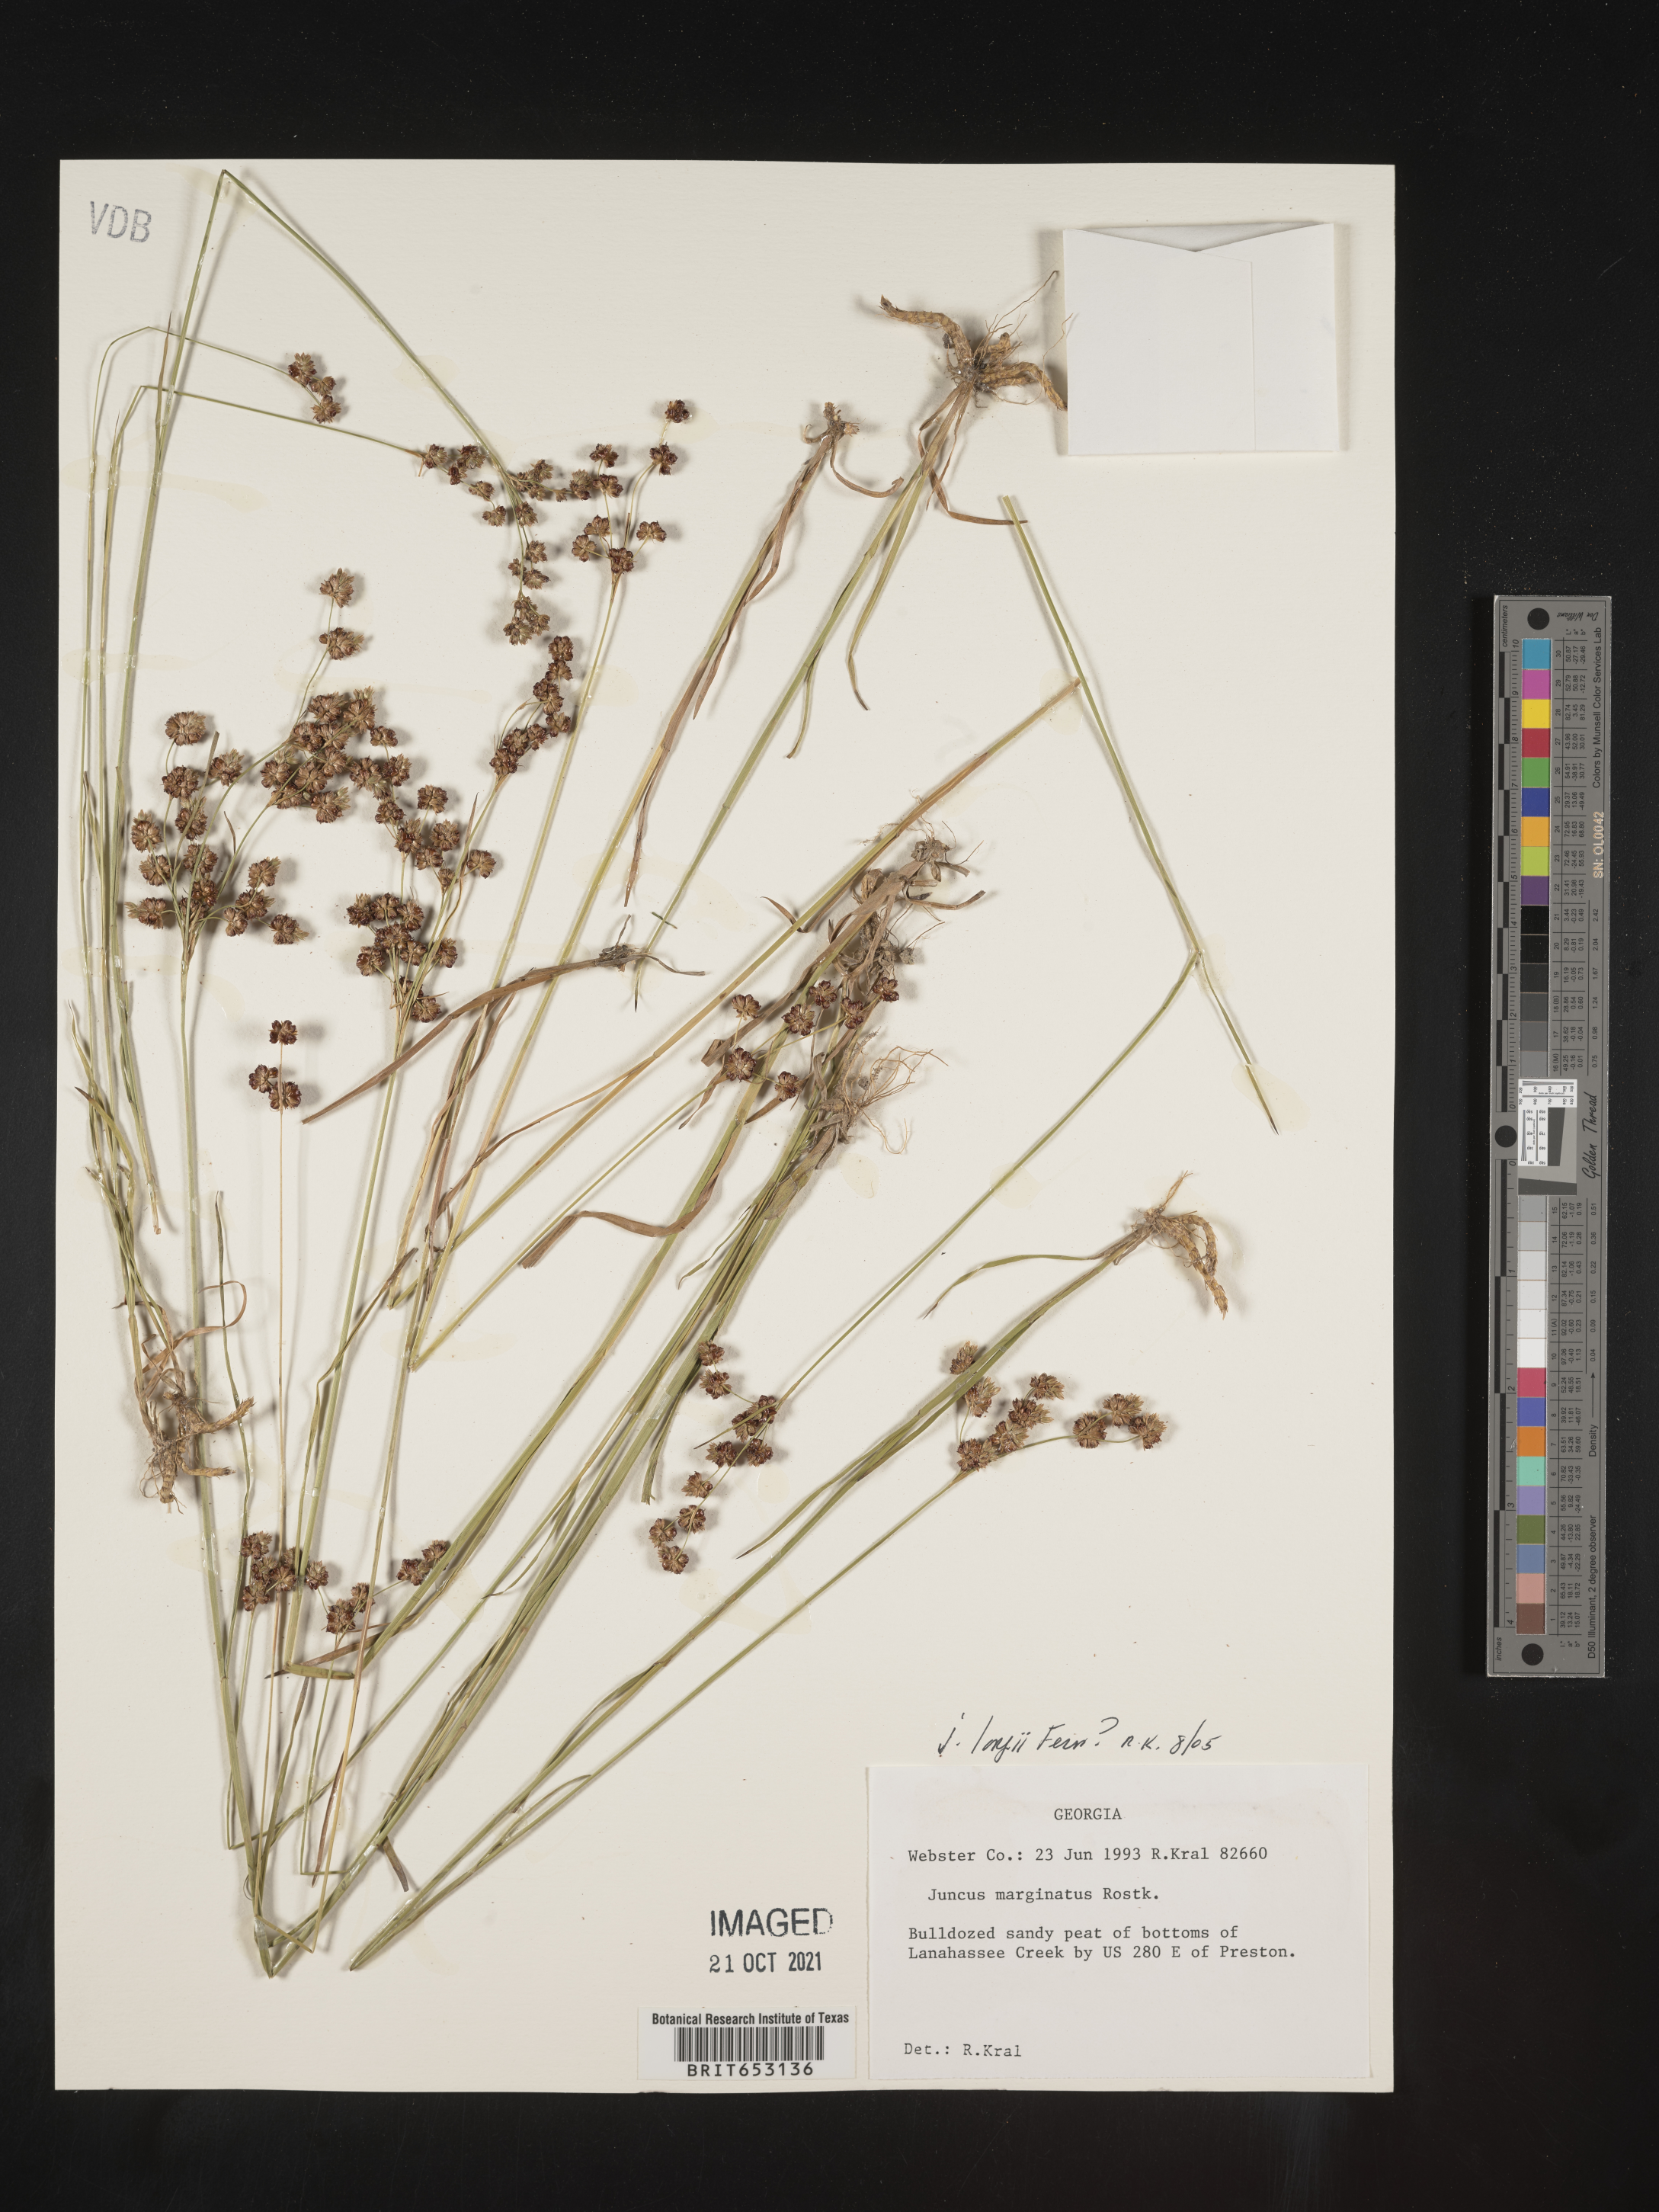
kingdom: Plantae
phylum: Tracheophyta
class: Liliopsida
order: Poales
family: Juncaceae
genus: Juncus
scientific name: Juncus longii
